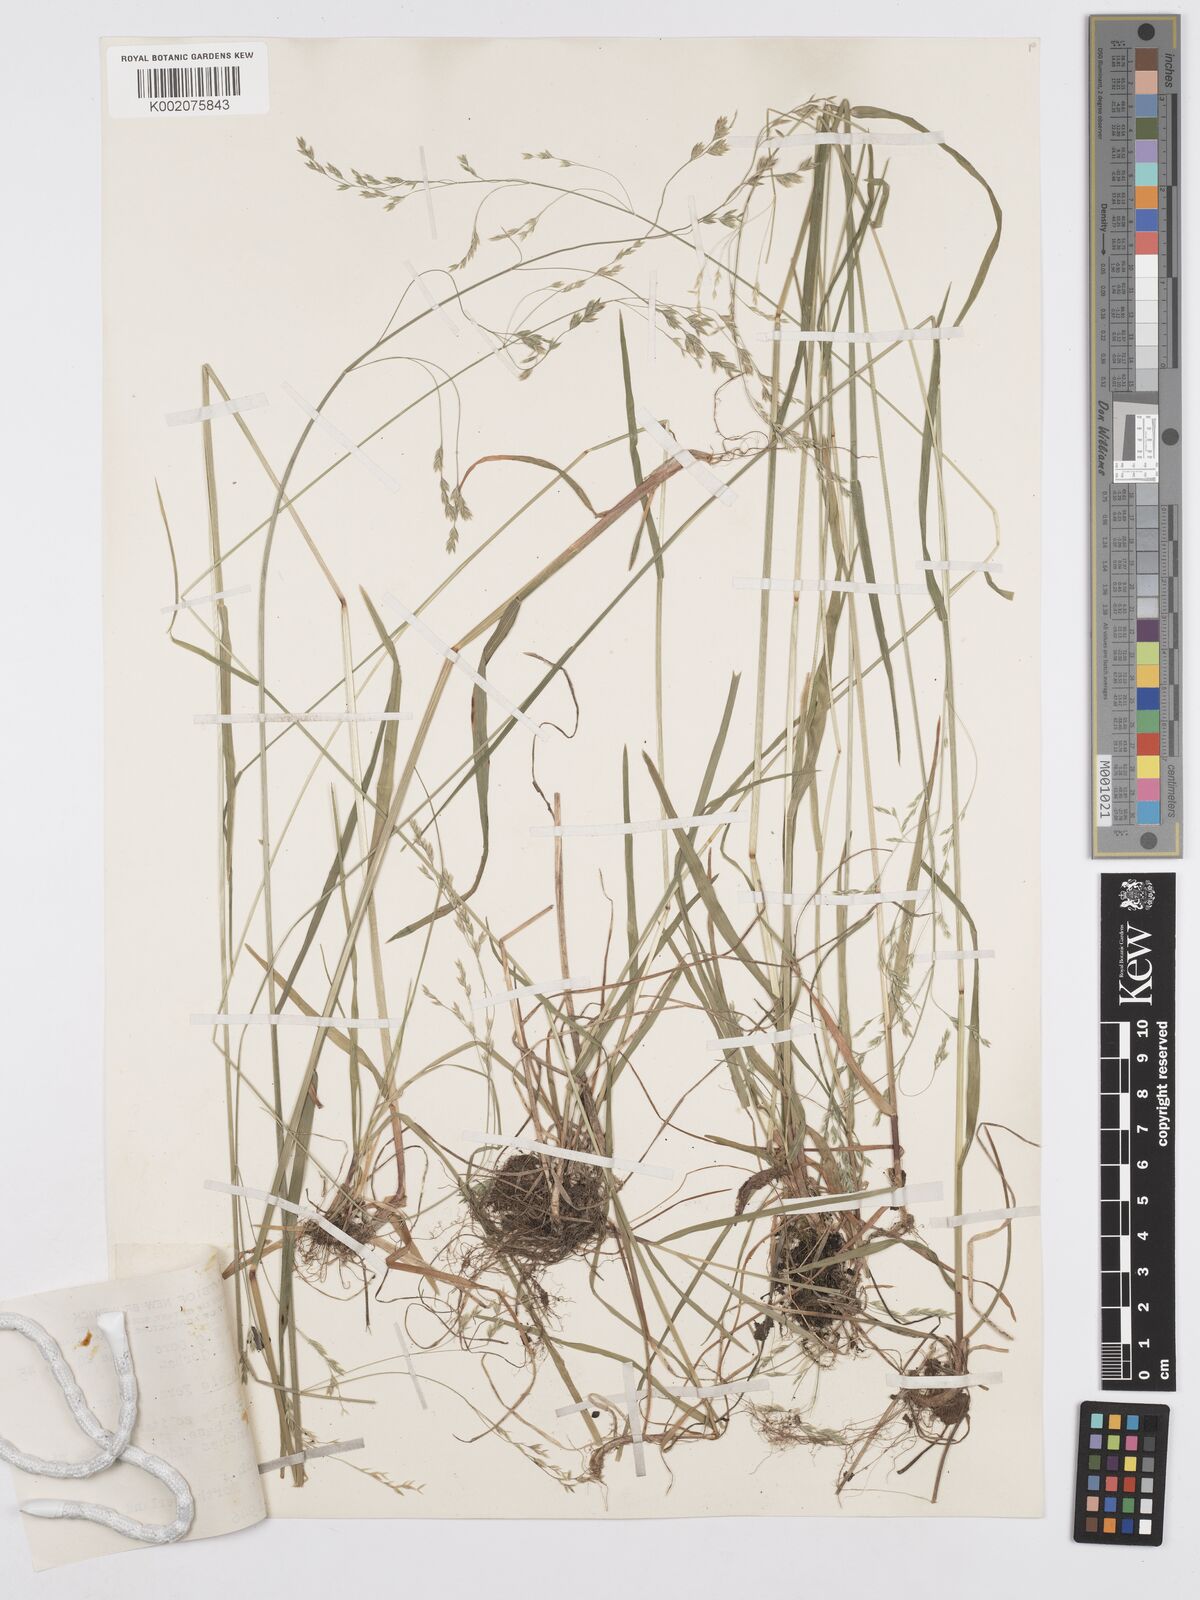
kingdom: Plantae
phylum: Tracheophyta
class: Liliopsida
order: Poales
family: Poaceae
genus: Poa
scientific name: Poa saltuensis
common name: Bushy pasture speargrass
